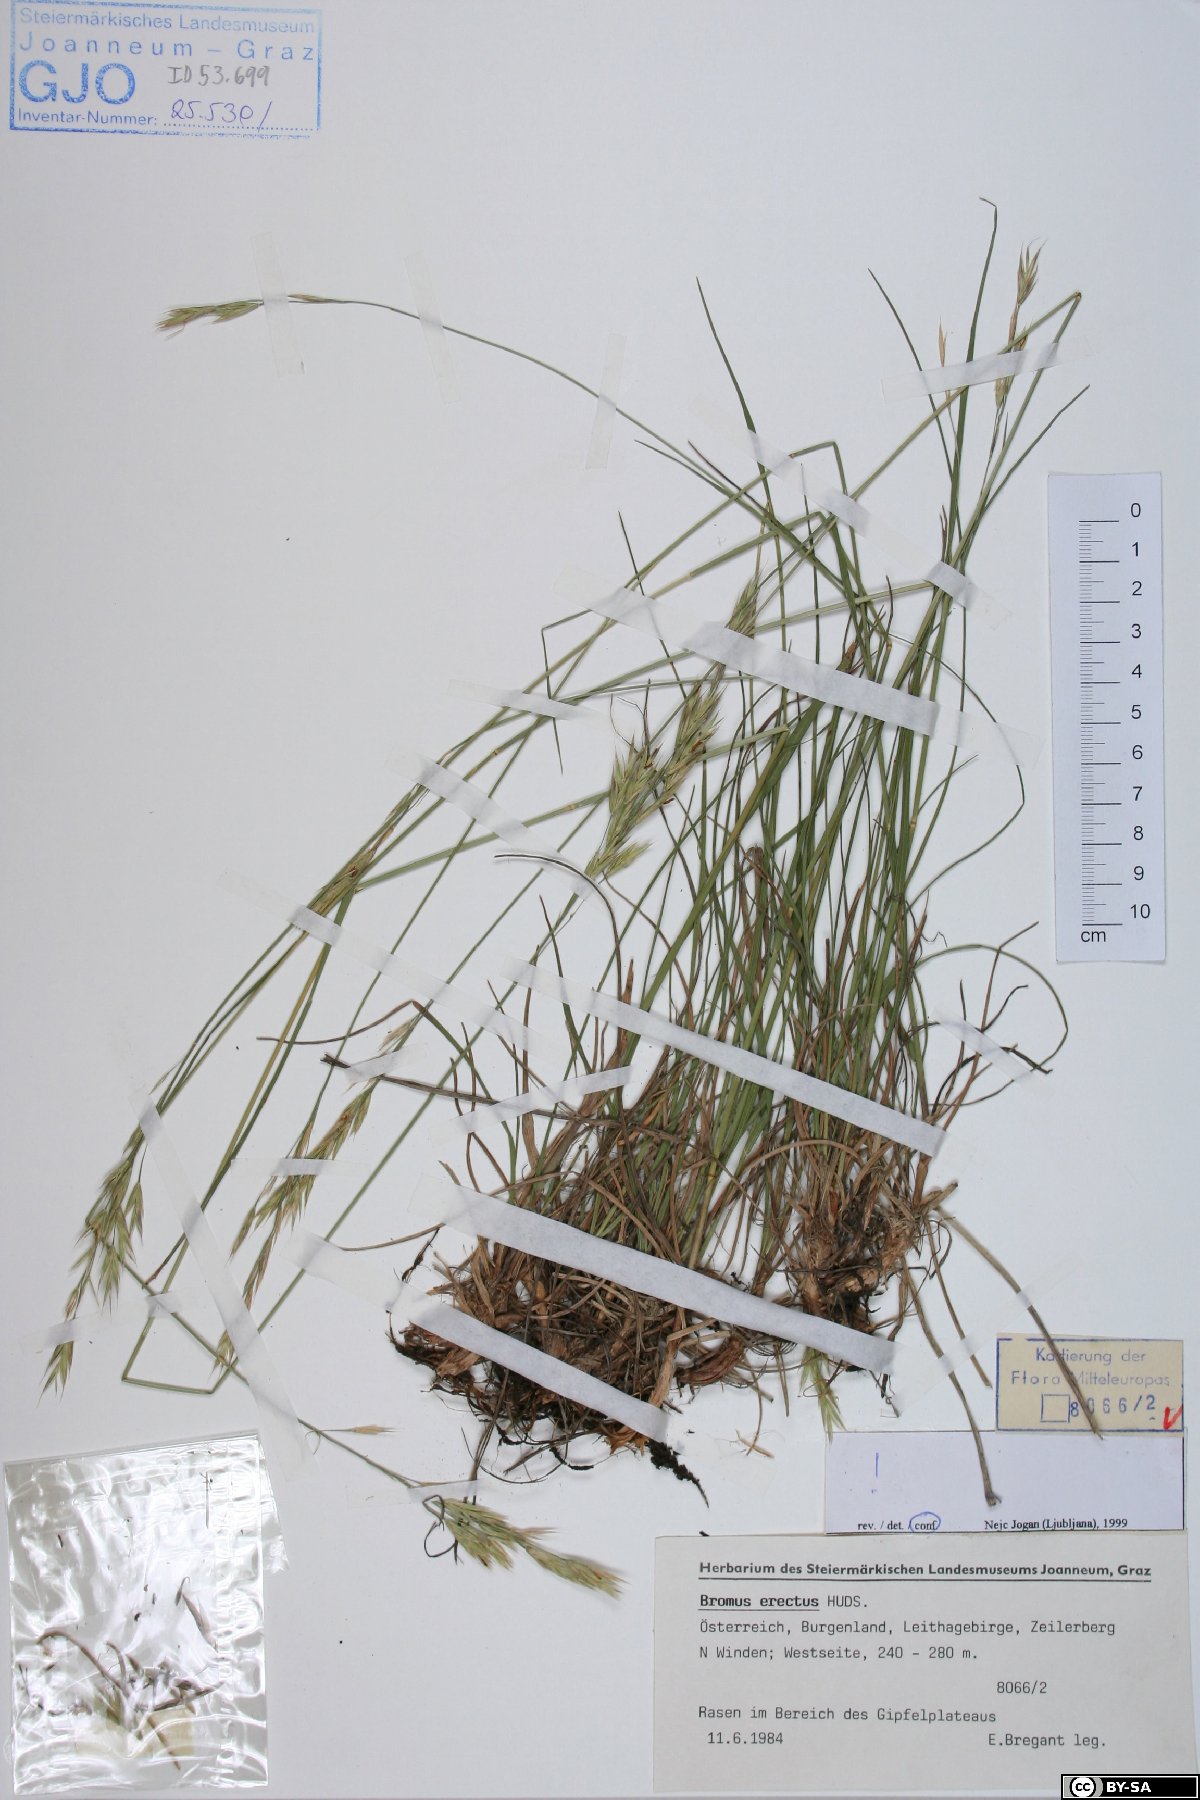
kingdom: Plantae
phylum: Tracheophyta
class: Liliopsida
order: Poales
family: Poaceae
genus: Bromus
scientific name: Bromus erectus
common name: Erect brome
